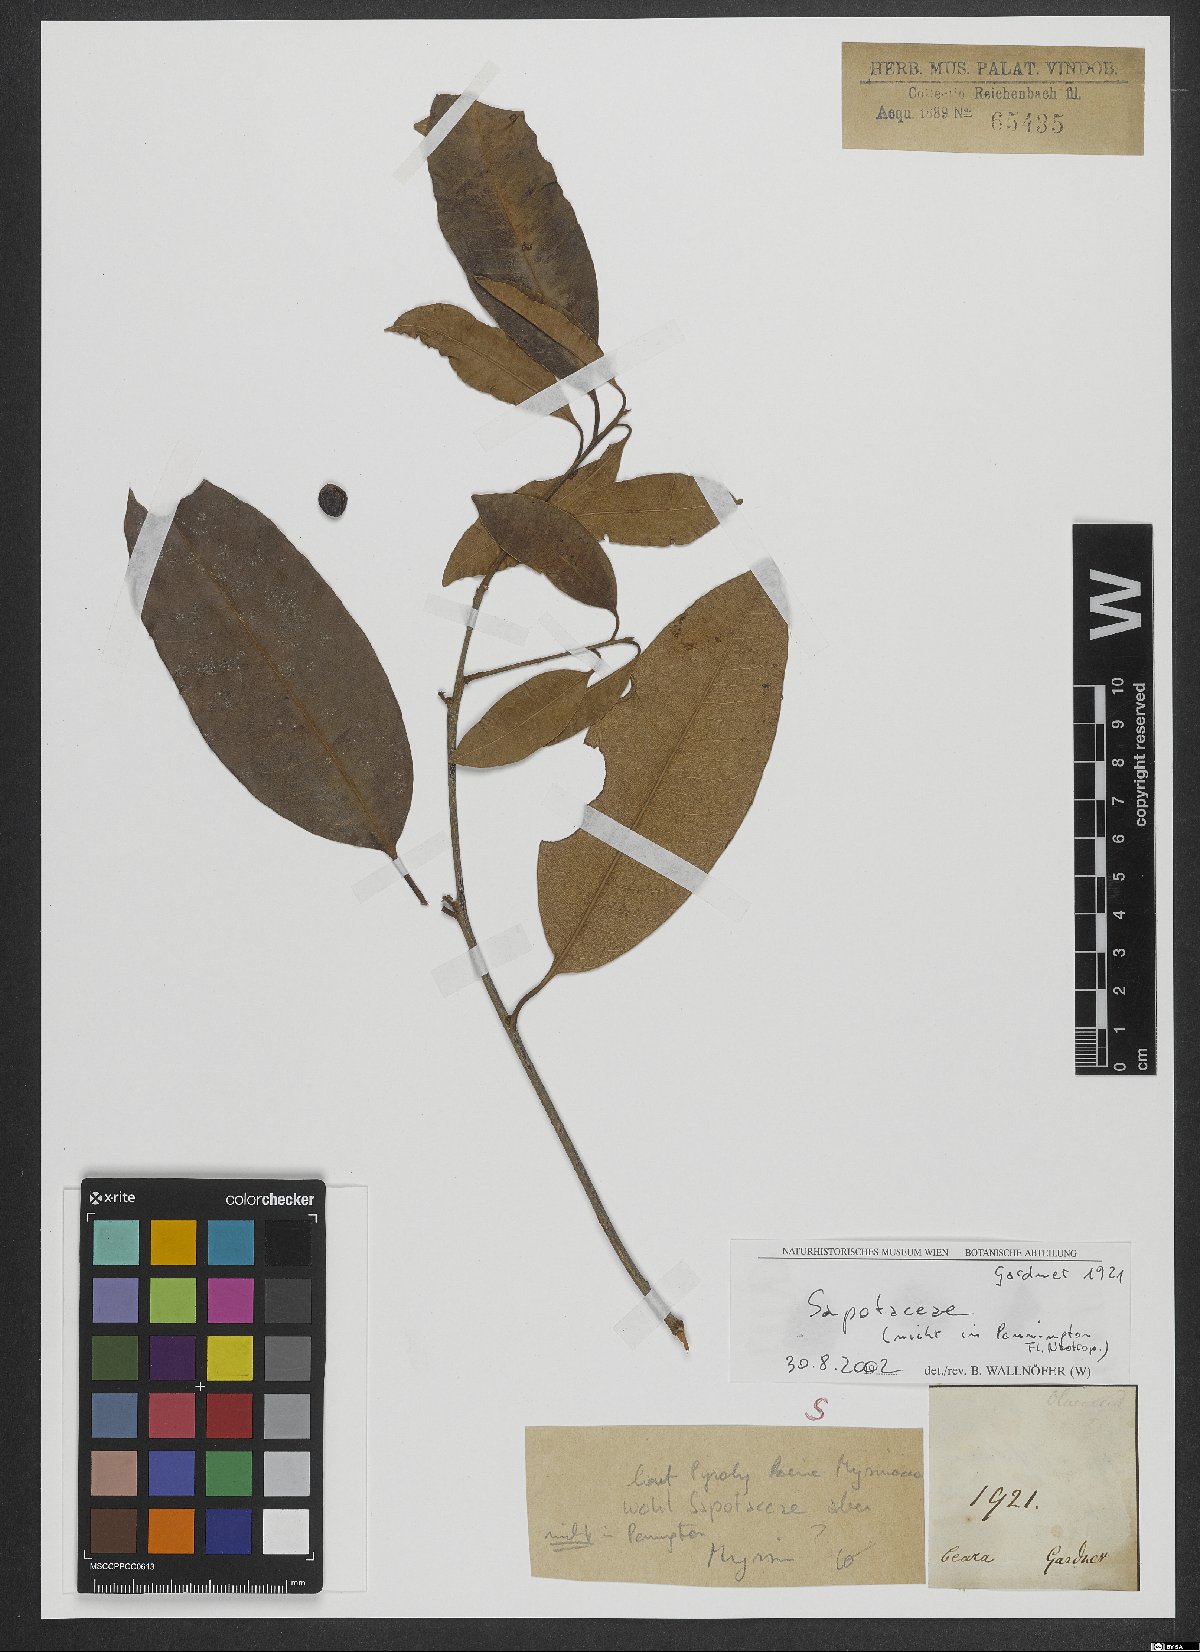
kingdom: Plantae
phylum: Tracheophyta
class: Magnoliopsida
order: Ericales
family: Sapotaceae
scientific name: Sapotaceae
